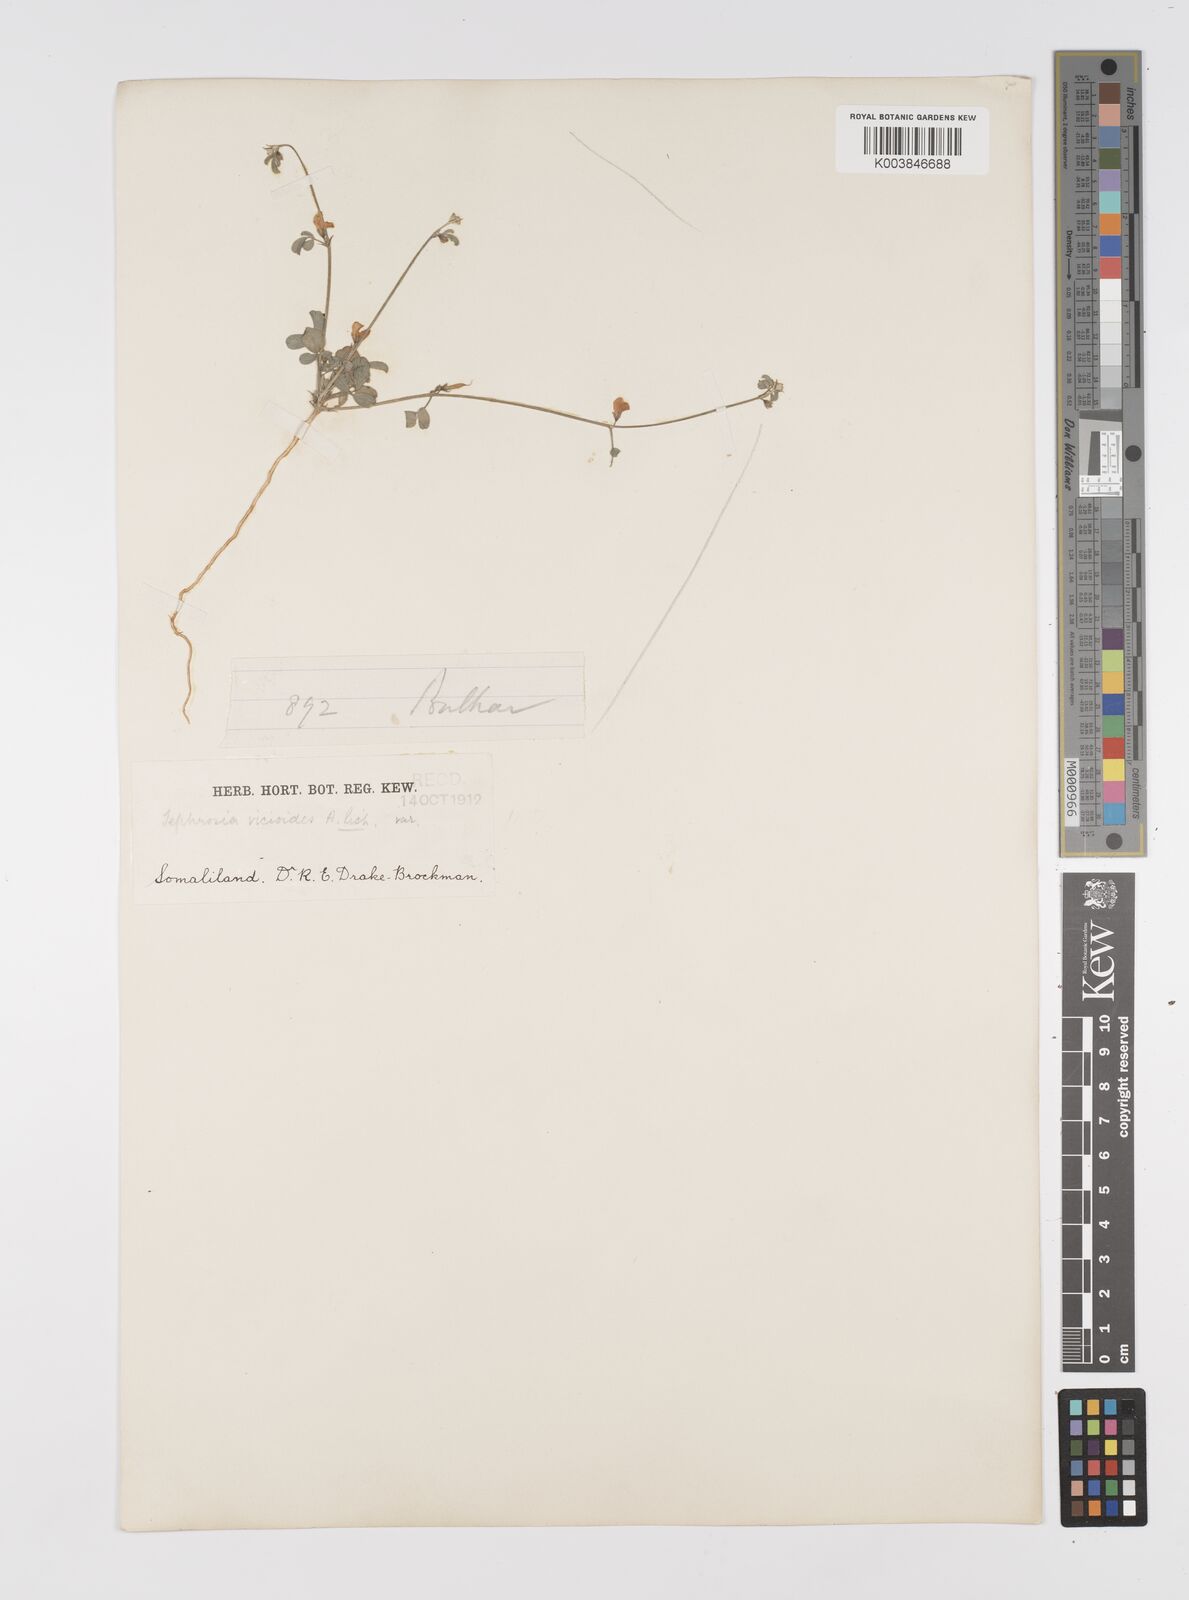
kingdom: Plantae
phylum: Tracheophyta
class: Magnoliopsida
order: Fabales
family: Fabaceae
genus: Tephrosia
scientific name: Tephrosia uniflora
